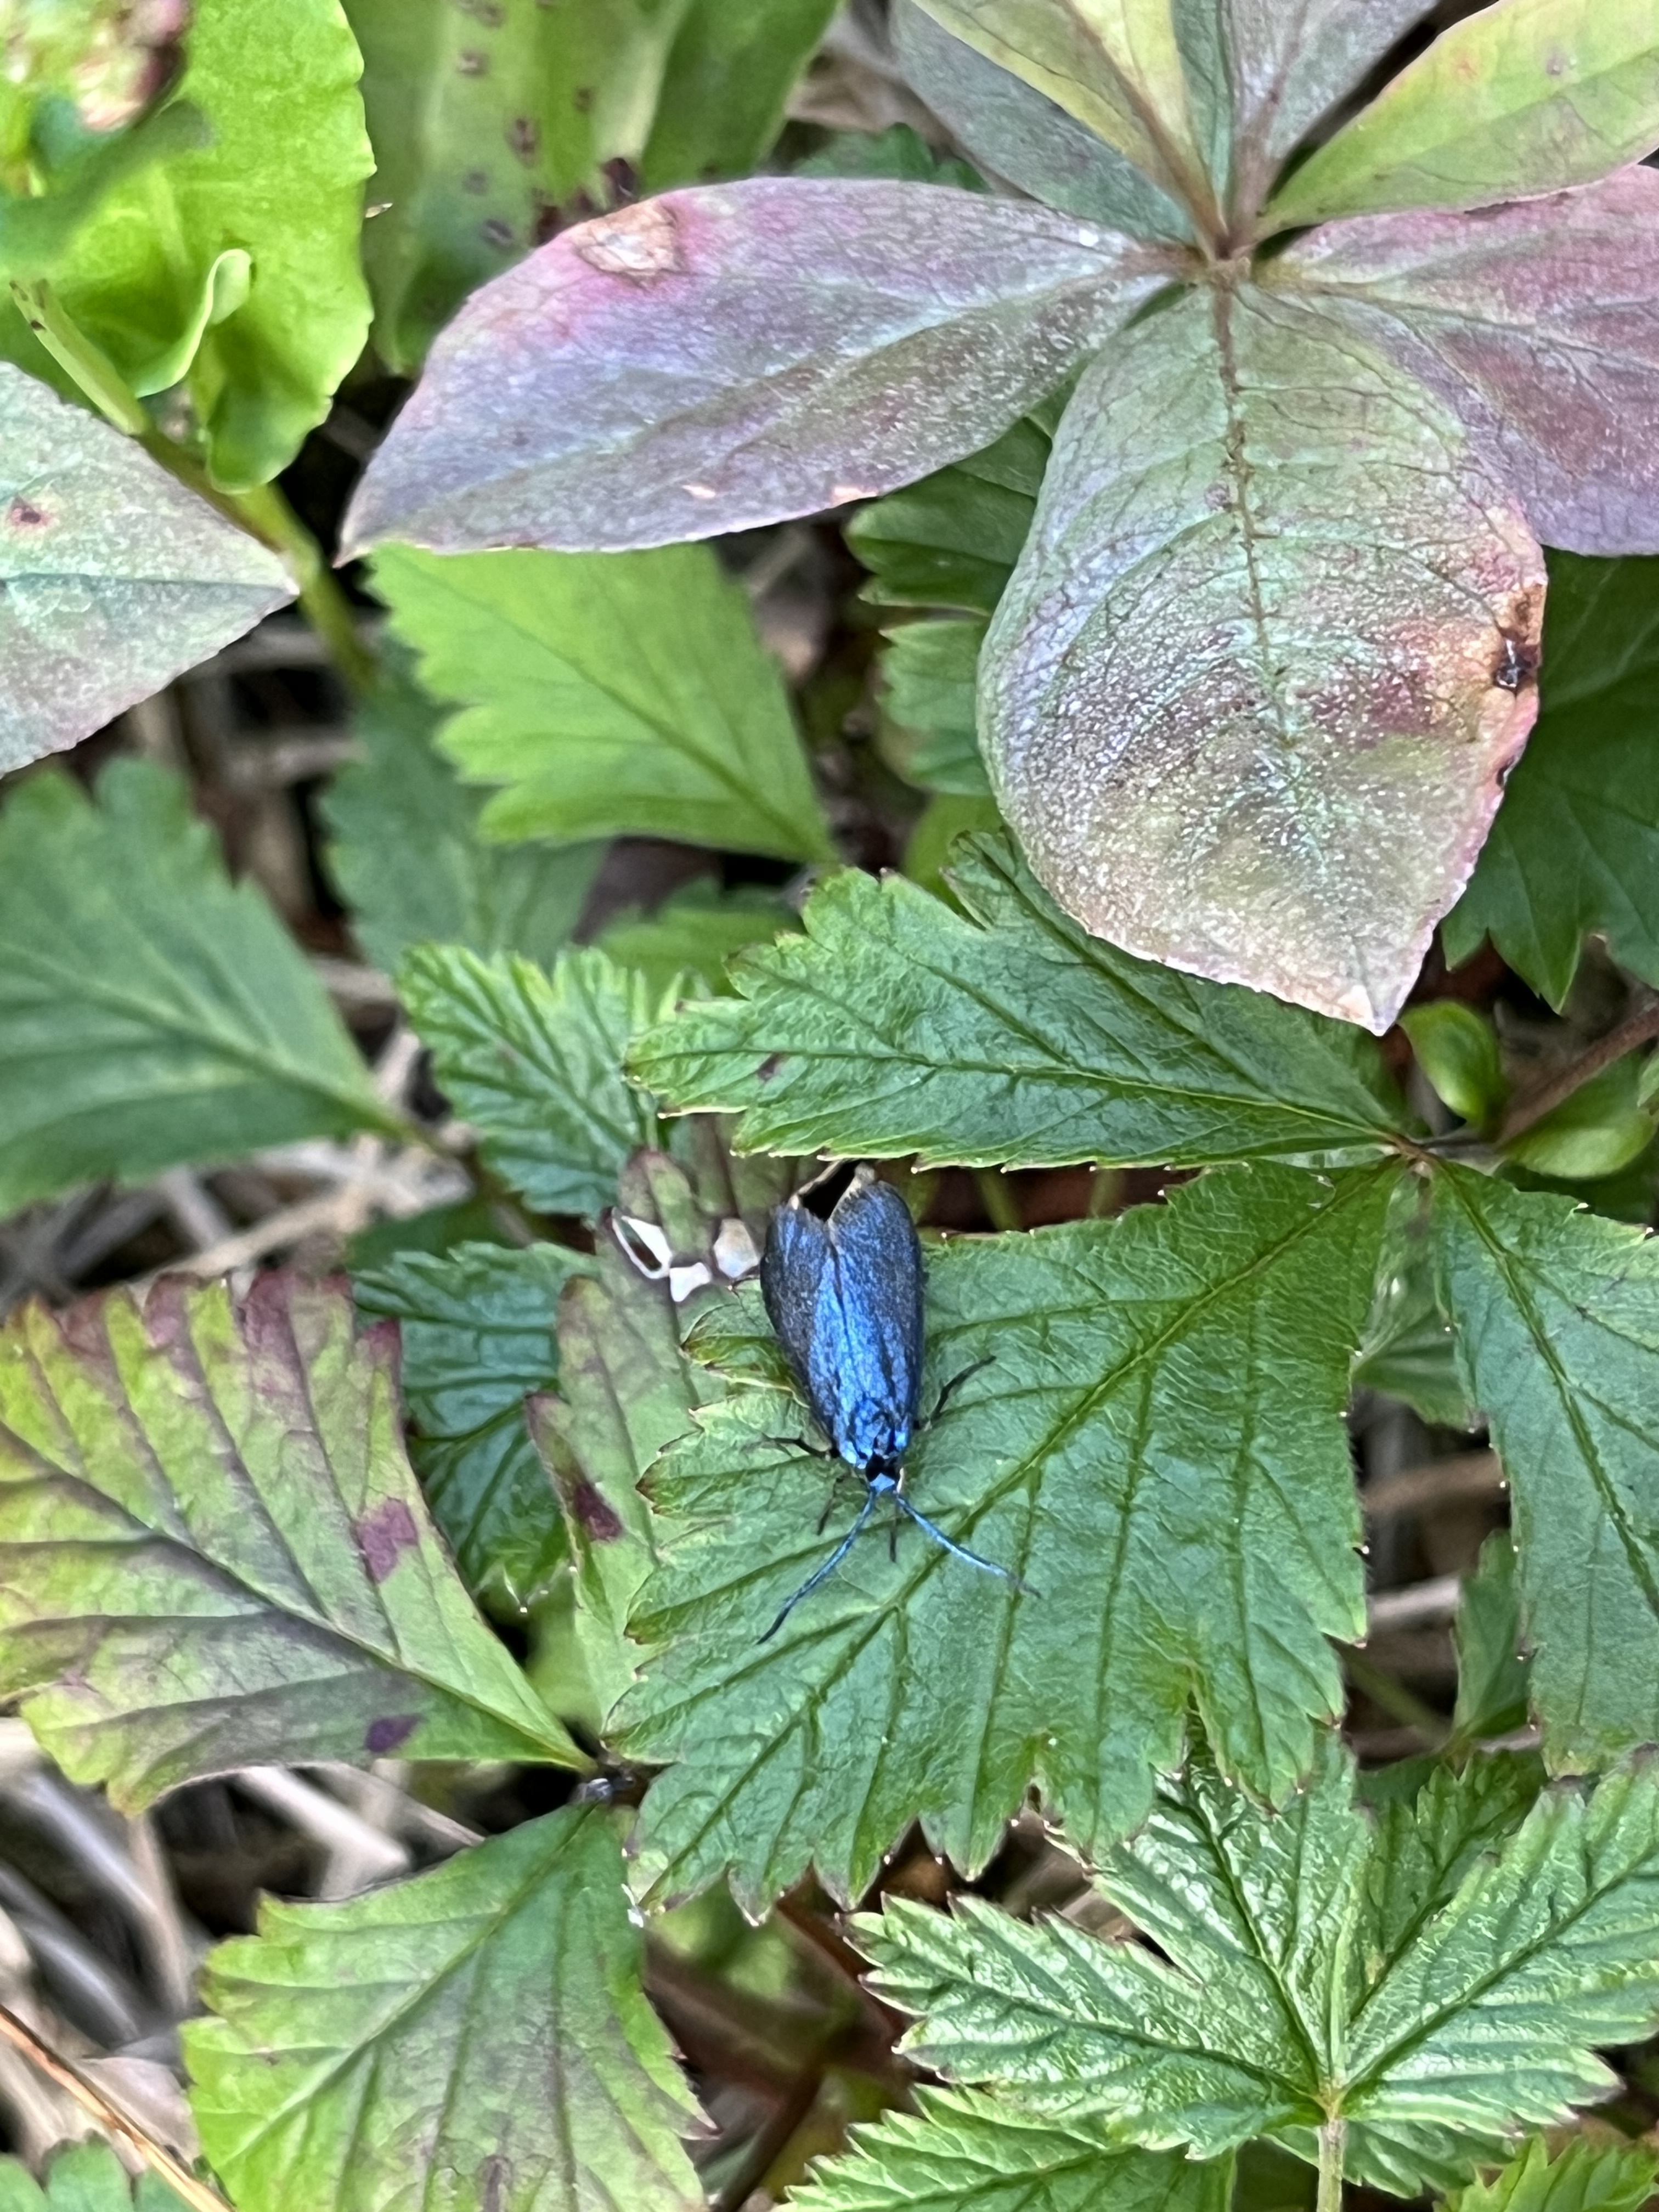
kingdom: Animalia
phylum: Arthropoda
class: Insecta
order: Lepidoptera
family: Zygaenidae
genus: Rhagades
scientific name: Rhagades pruni
